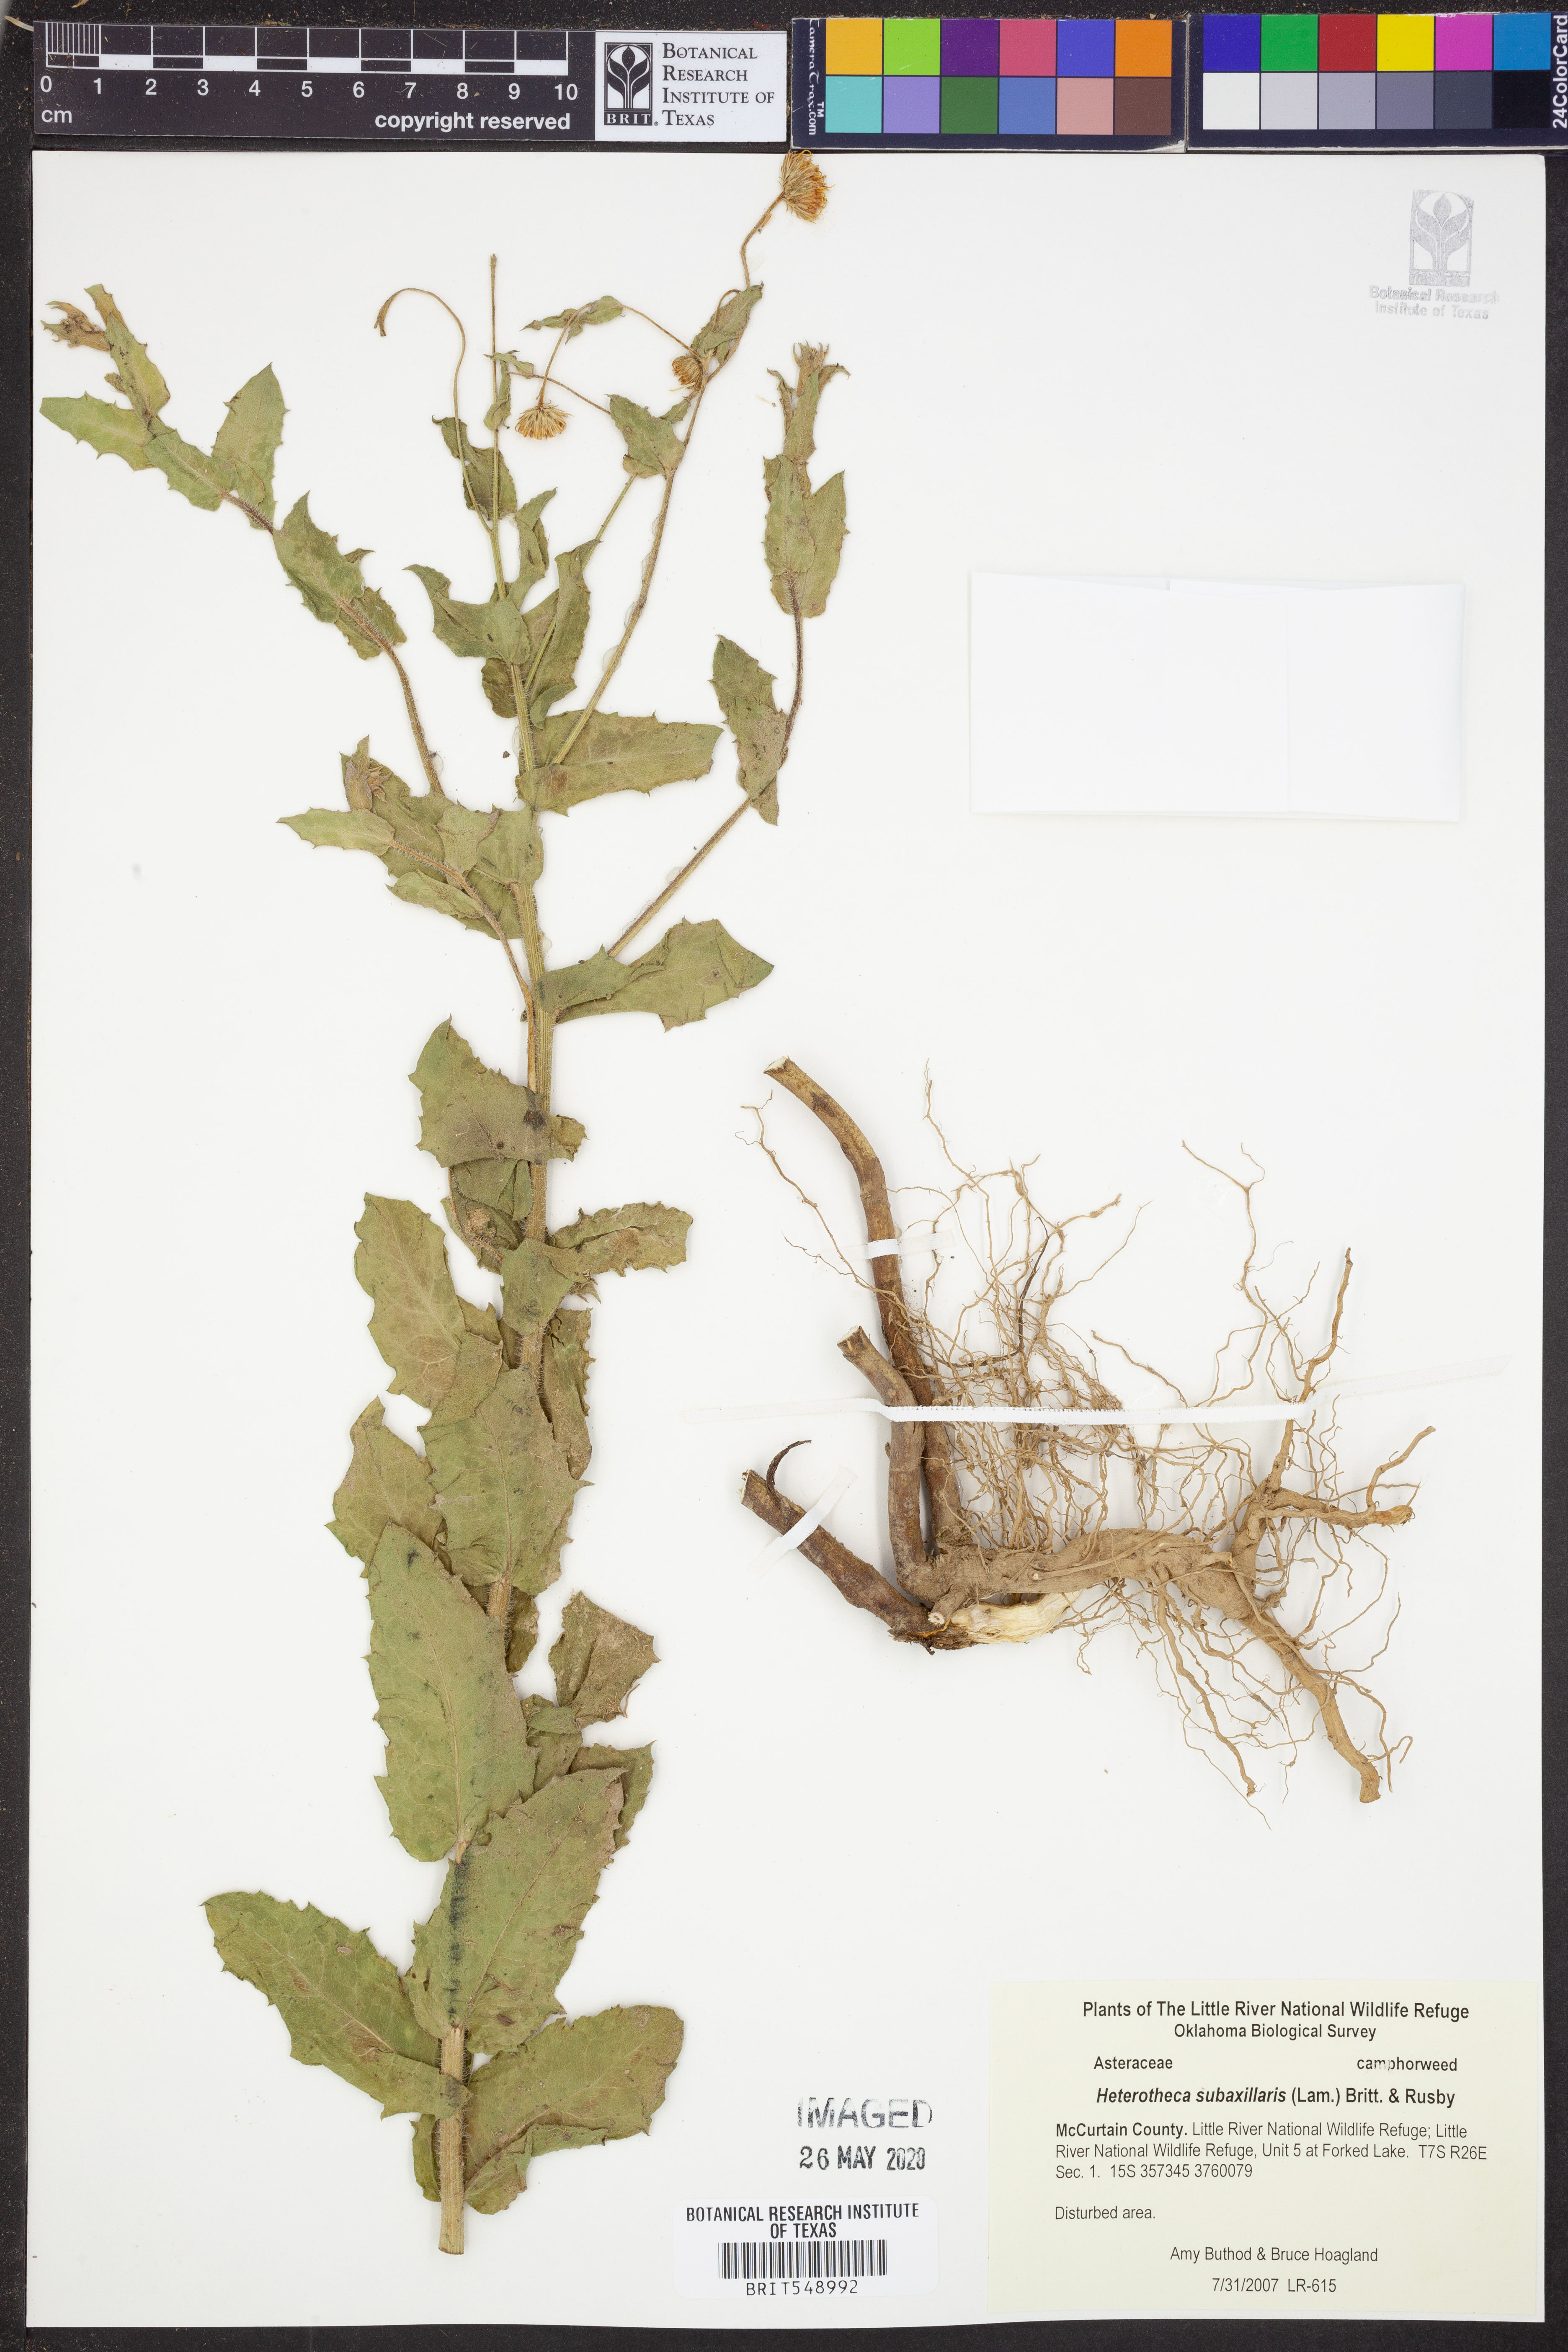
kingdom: Plantae
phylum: Tracheophyta
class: Magnoliopsida
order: Asterales
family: Asteraceae
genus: Heterotheca
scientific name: Heterotheca subaxillaris
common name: Camphorweed
